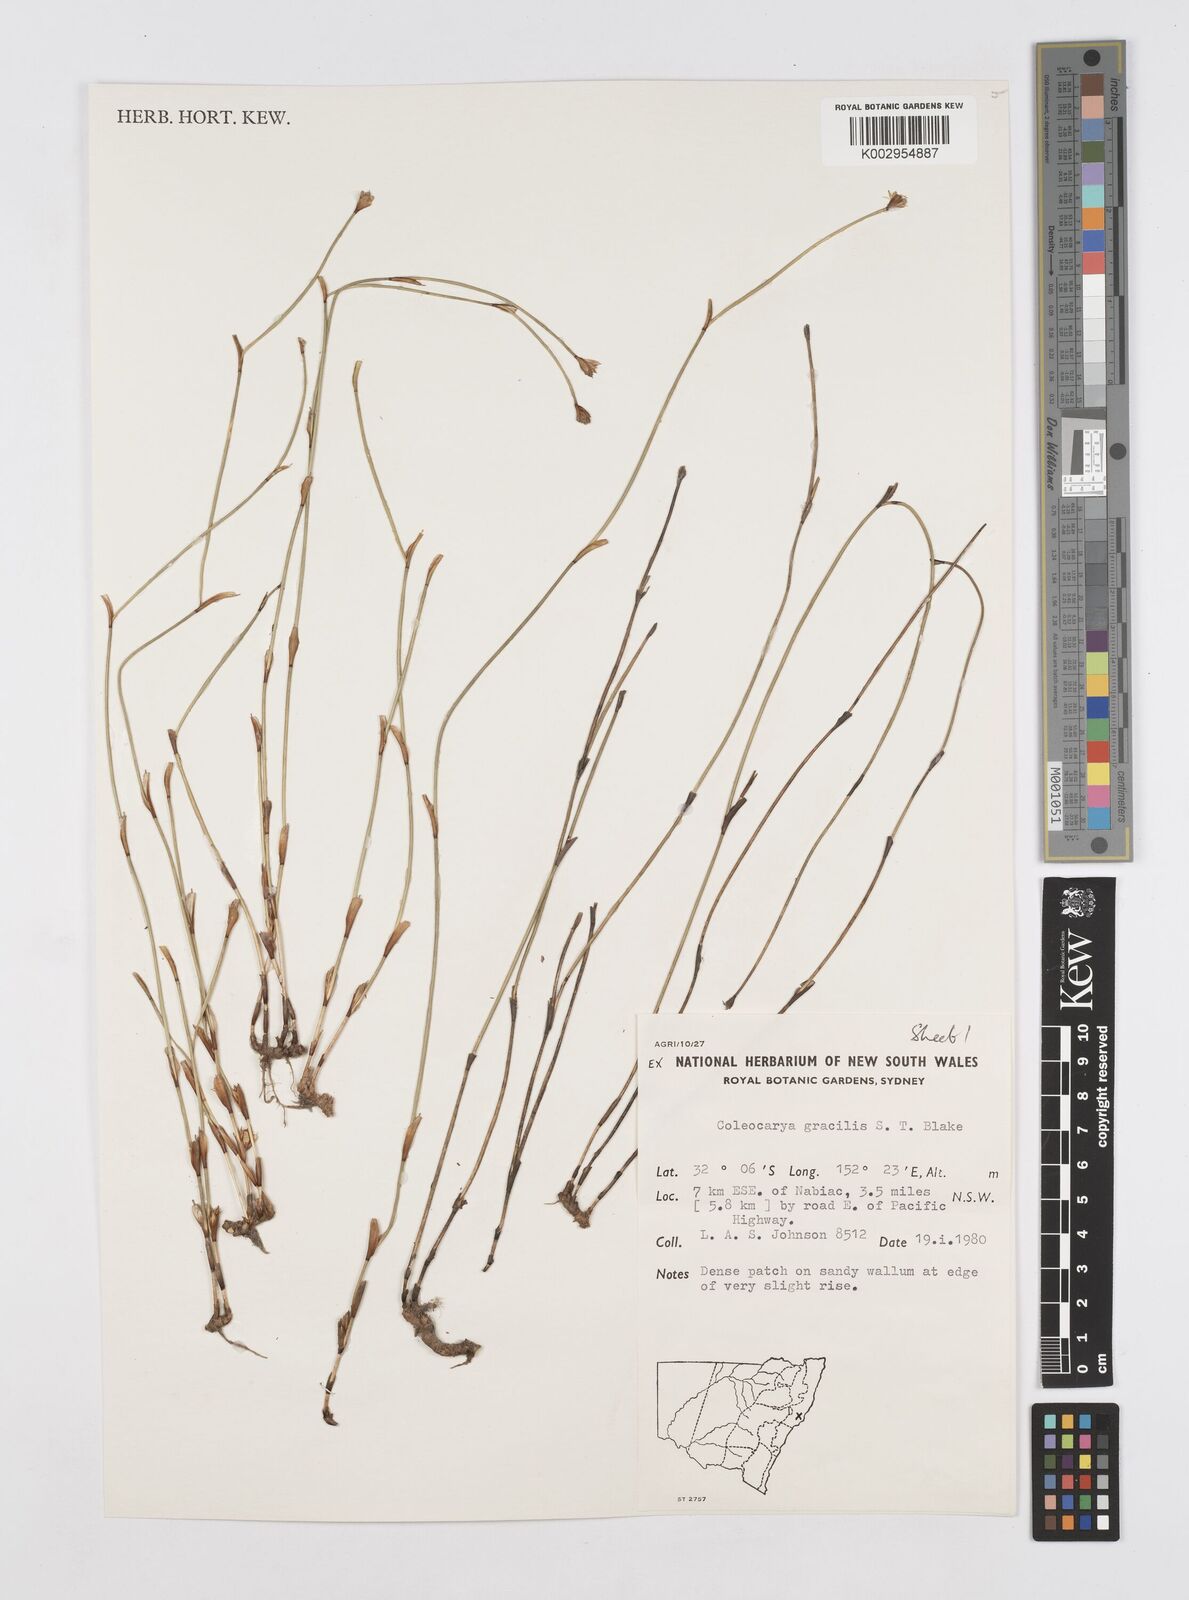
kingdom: Plantae
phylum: Tracheophyta
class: Liliopsida
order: Poales
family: Restionaceae
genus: Coleocarya
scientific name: Coleocarya gracilis
